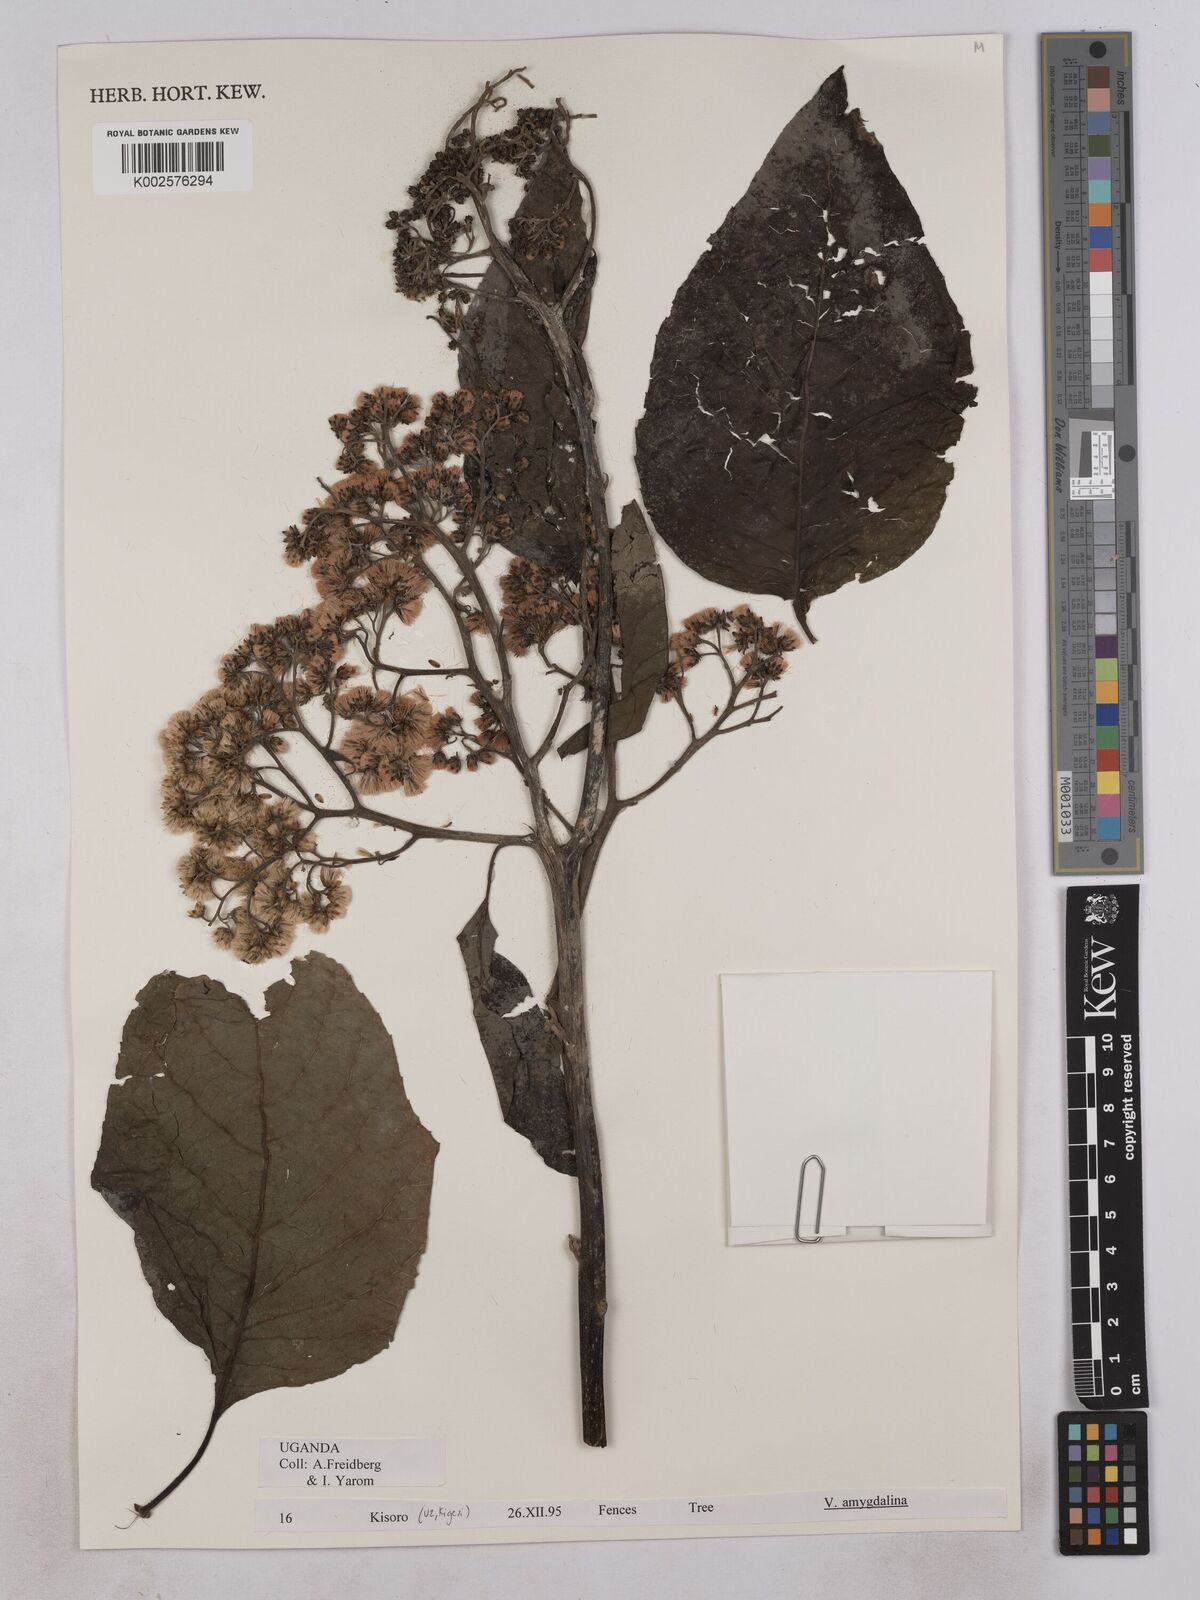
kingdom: Plantae
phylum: Tracheophyta
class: Magnoliopsida
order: Asterales
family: Asteraceae
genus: Gymnanthemum
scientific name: Gymnanthemum amygdalinum
